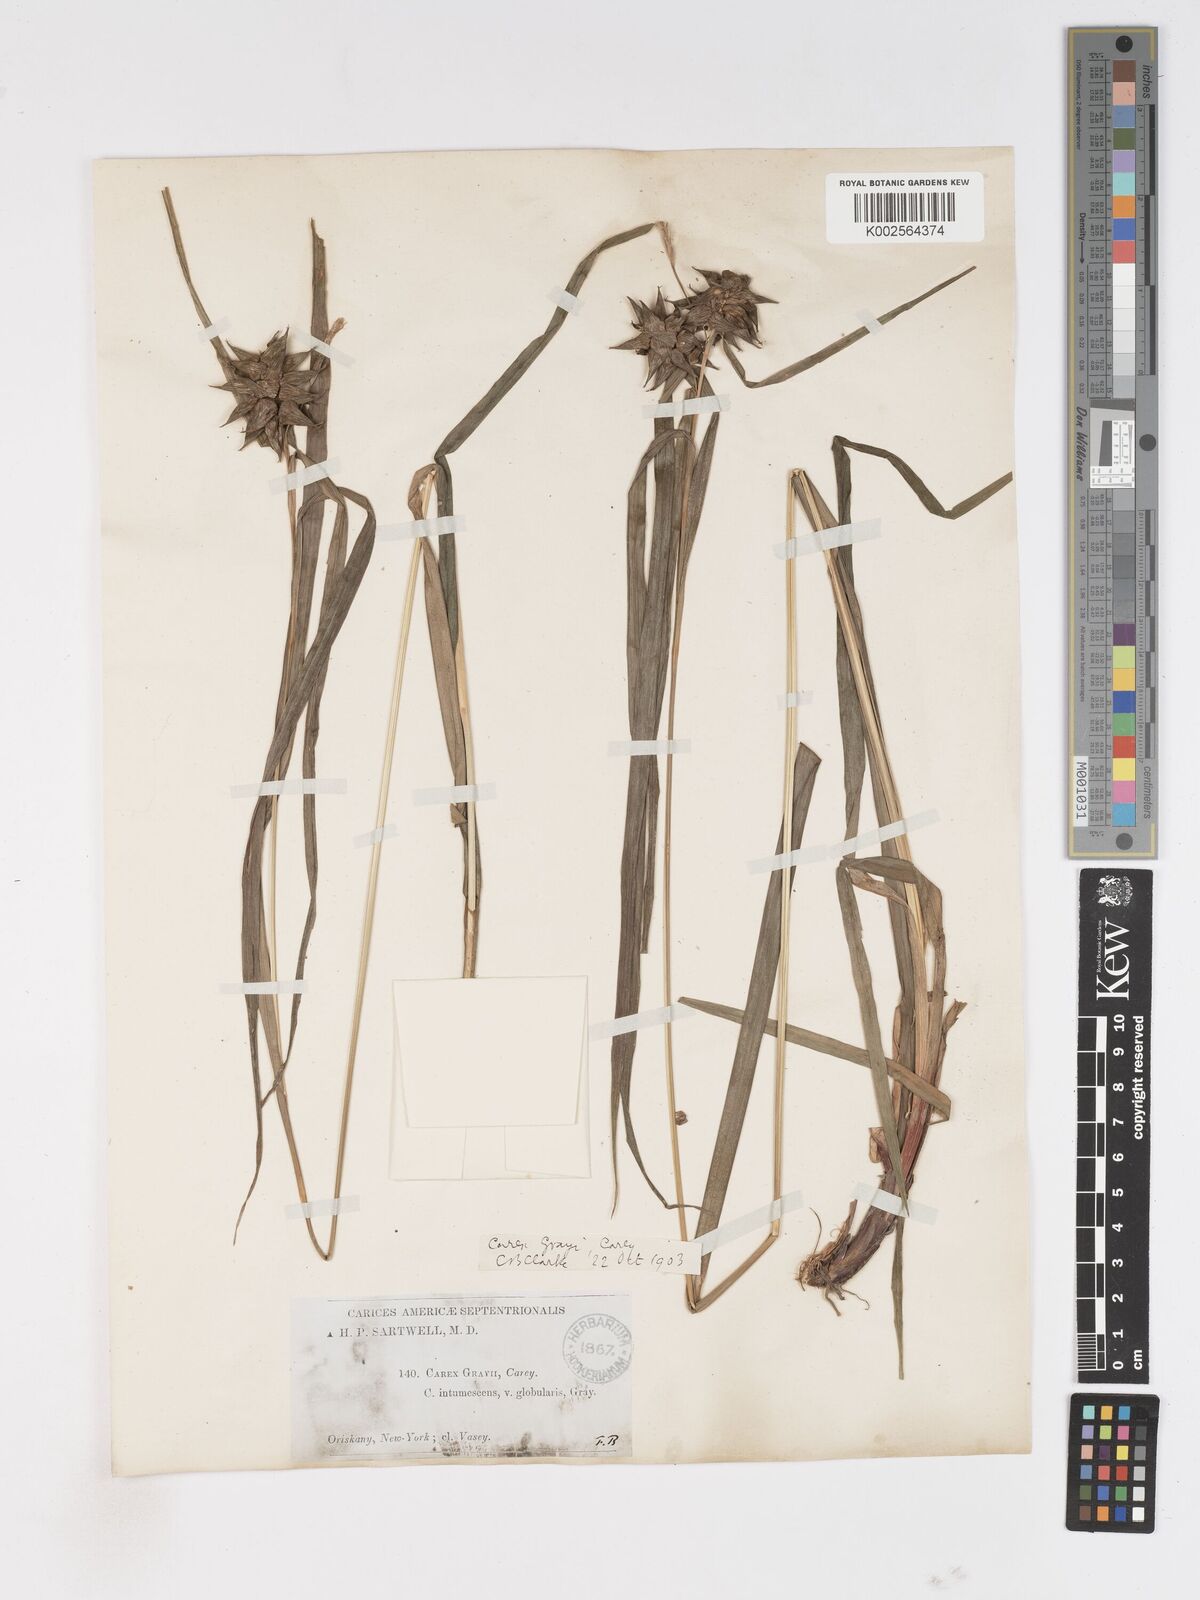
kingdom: Plantae
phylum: Tracheophyta
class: Liliopsida
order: Poales
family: Cyperaceae
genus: Carex
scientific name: Carex grayi
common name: Asa gray's sedge
